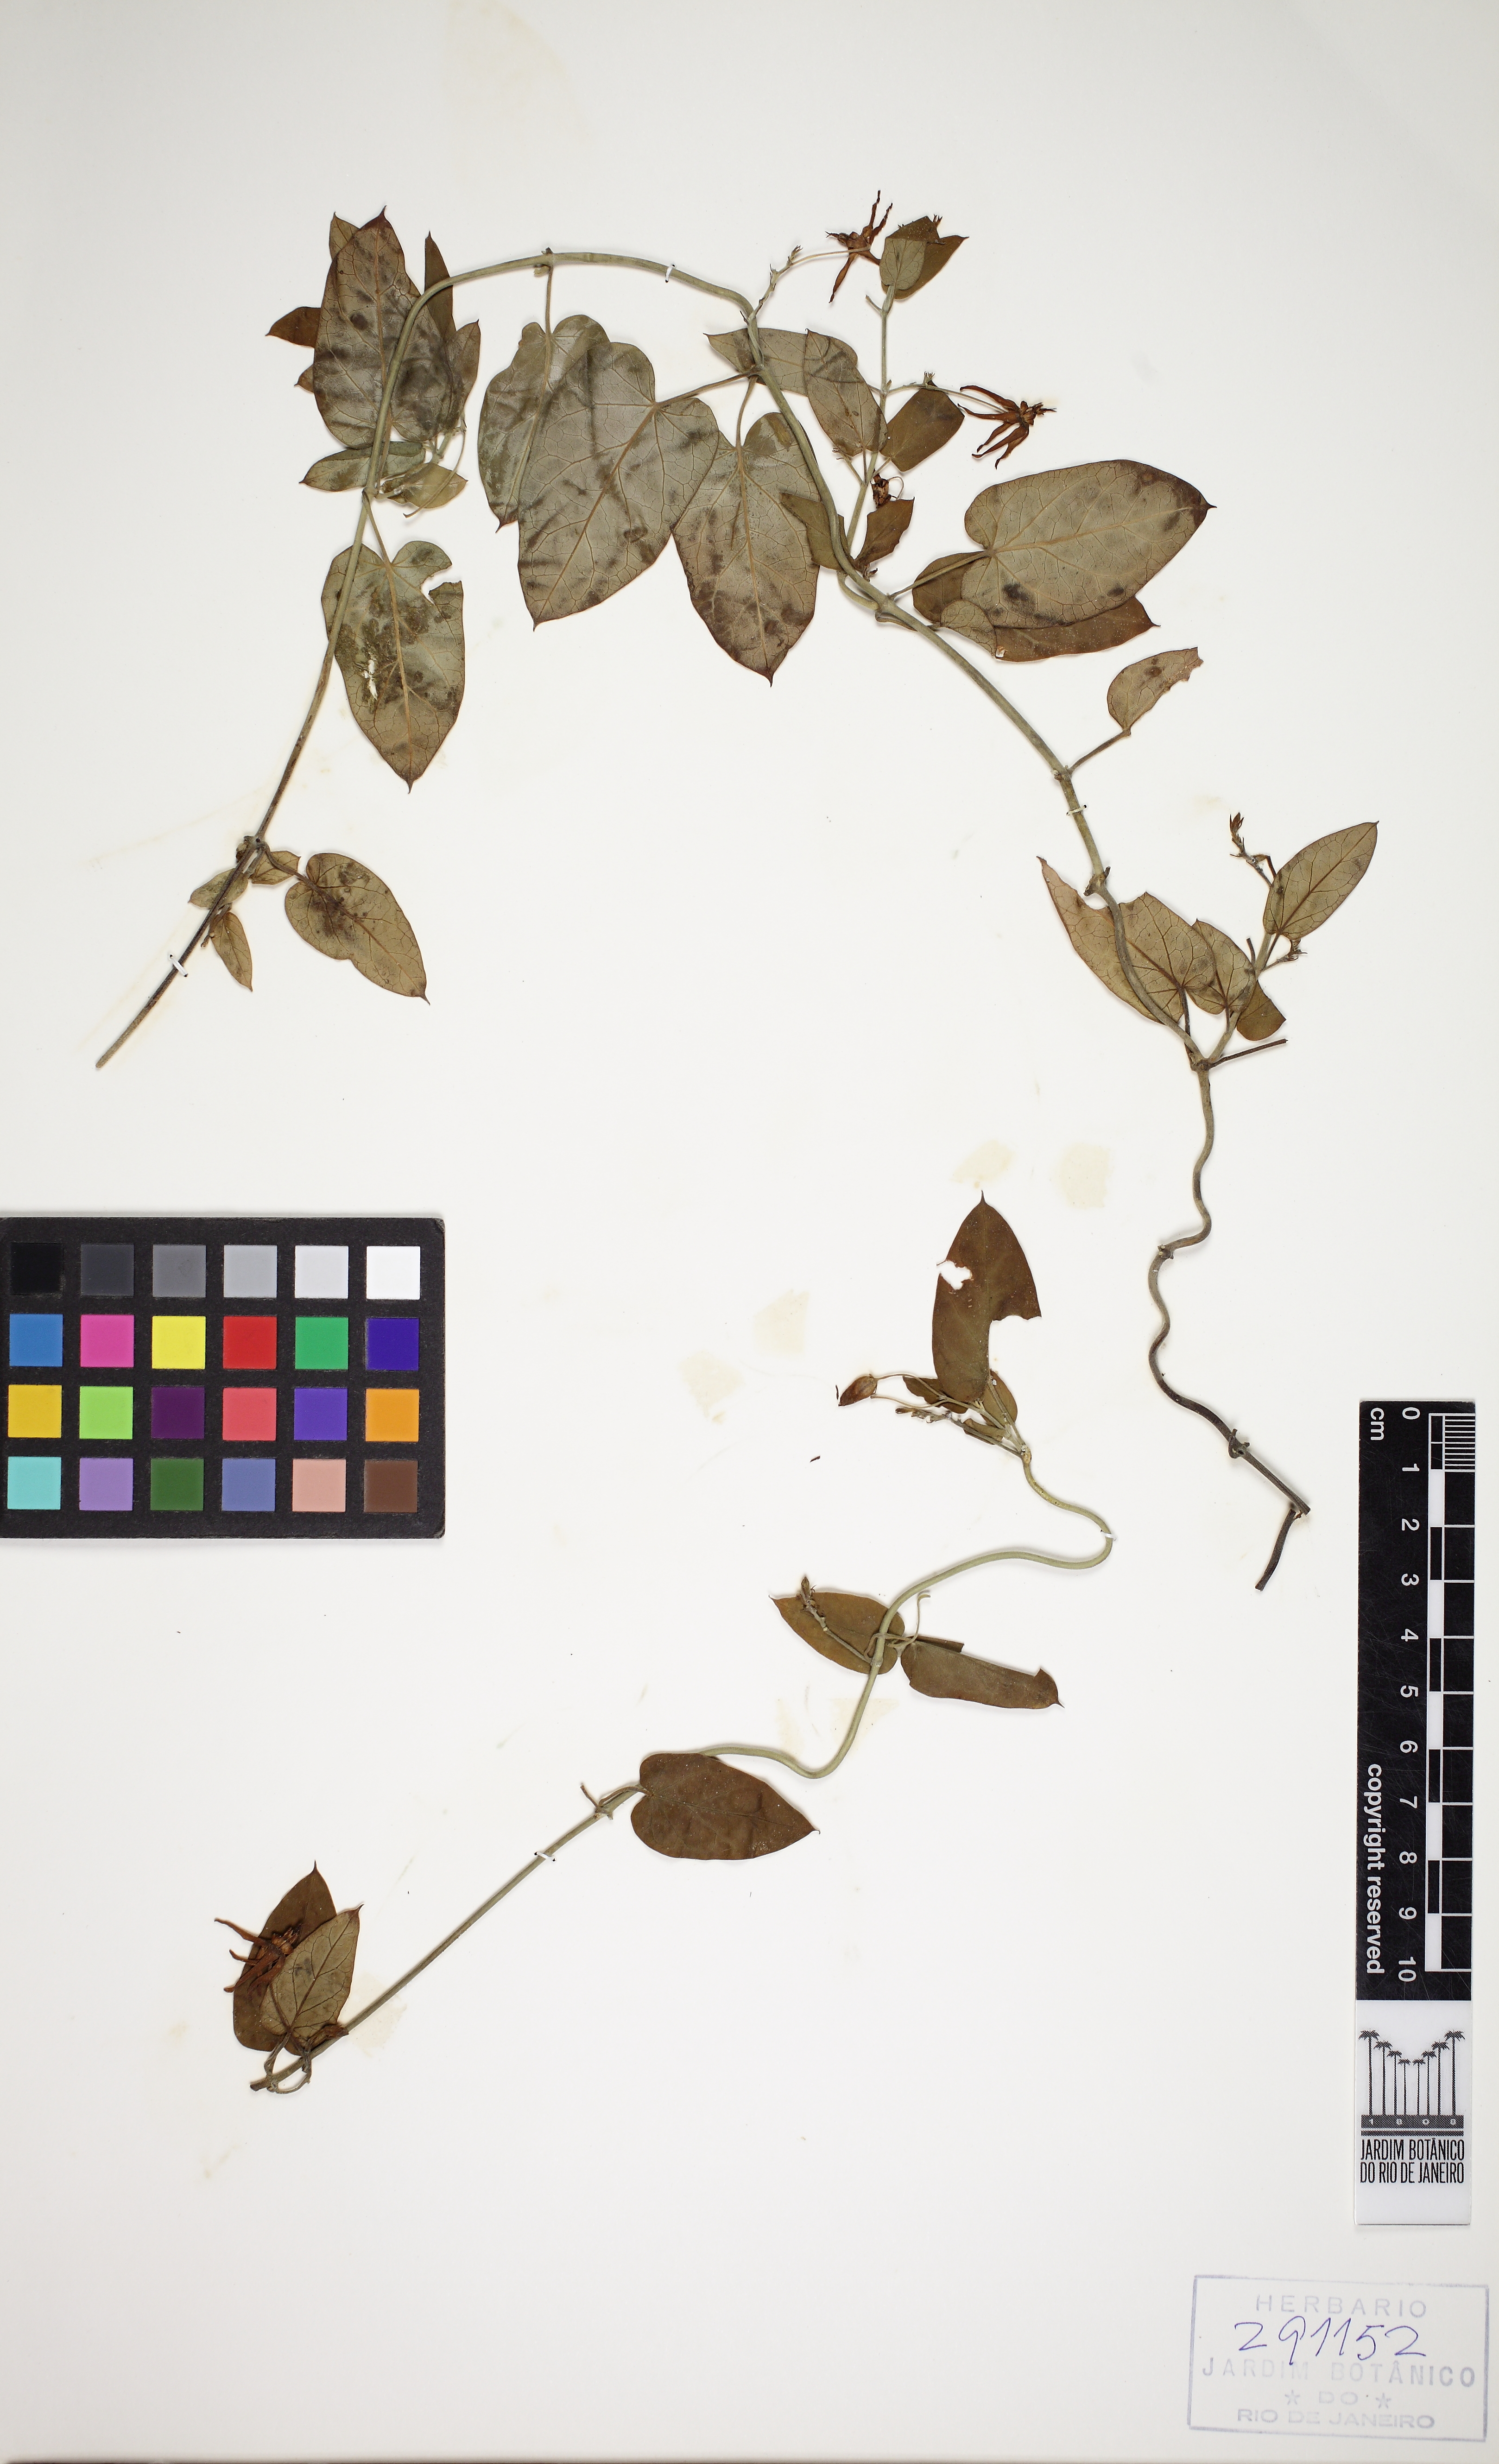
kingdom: Plantae
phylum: Tracheophyta
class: Magnoliopsida
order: Gentianales
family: Apocynaceae
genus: Oxypetalum
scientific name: Oxypetalum banksii
